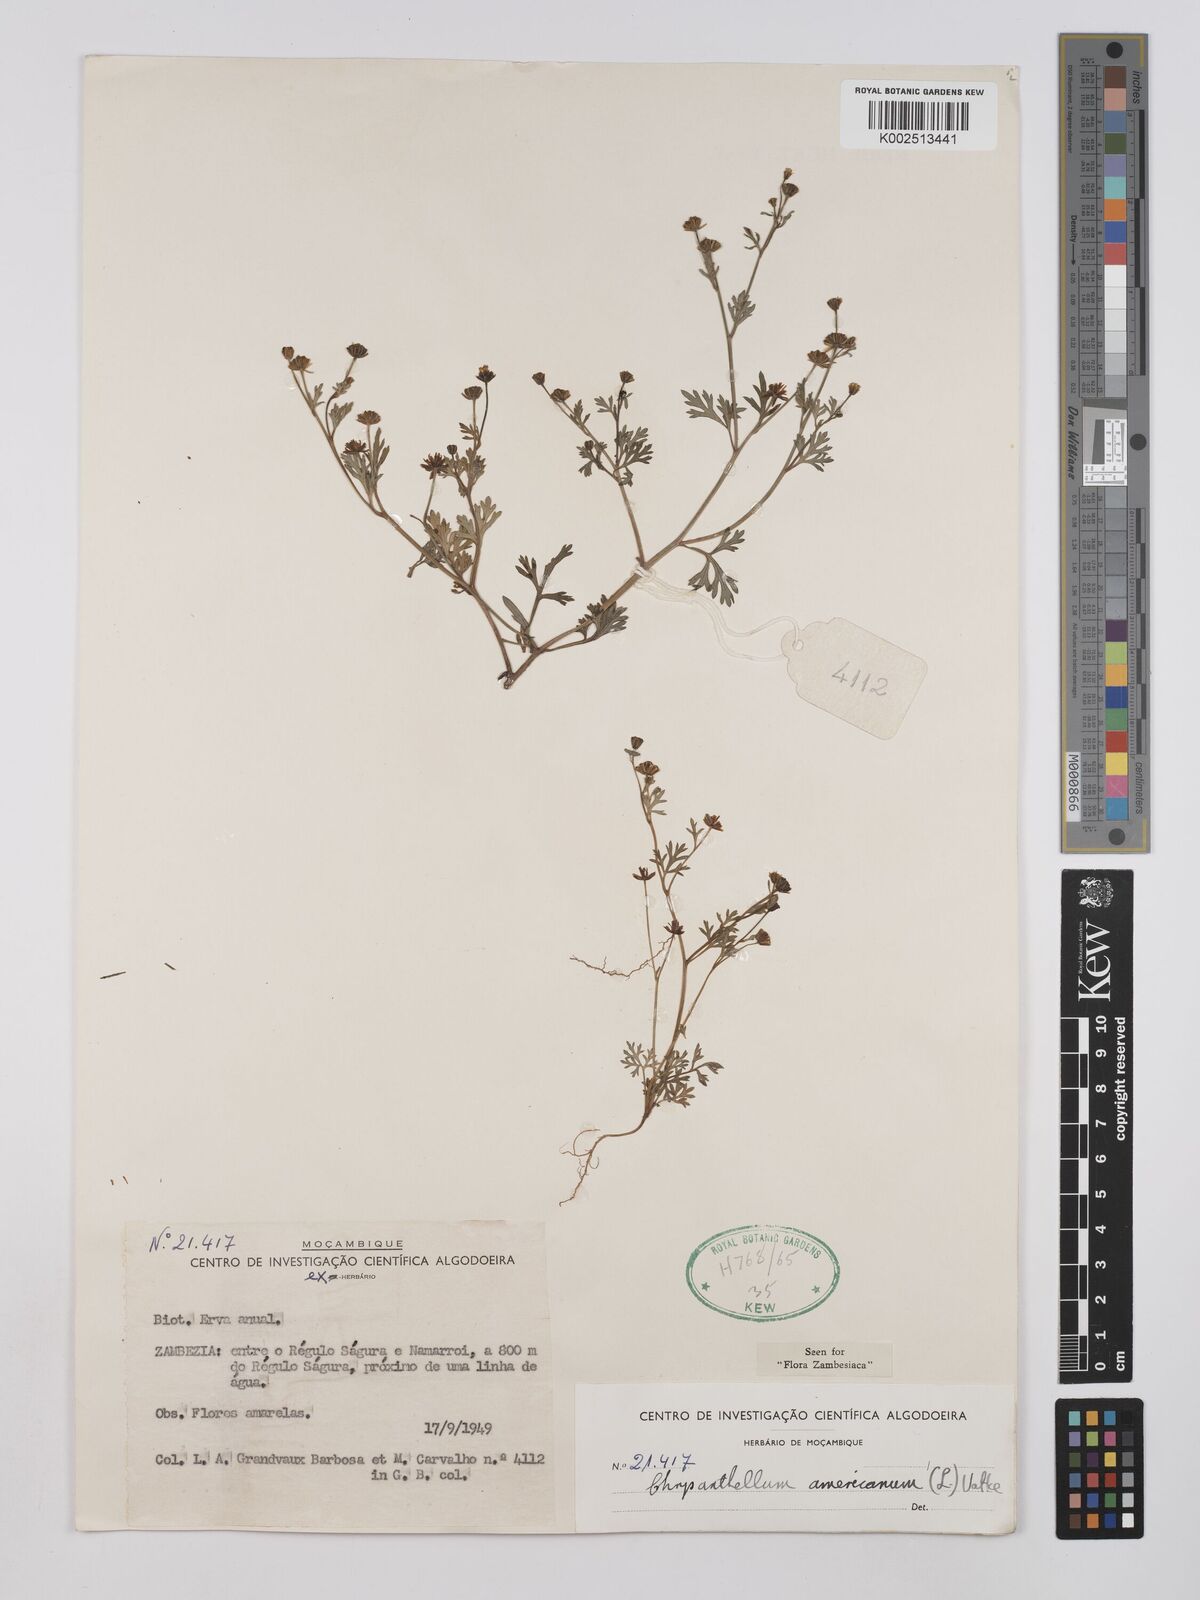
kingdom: Plantae
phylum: Tracheophyta
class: Magnoliopsida
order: Asterales
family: Asteraceae
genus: Chrysanthellum
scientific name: Chrysanthellum indicum
